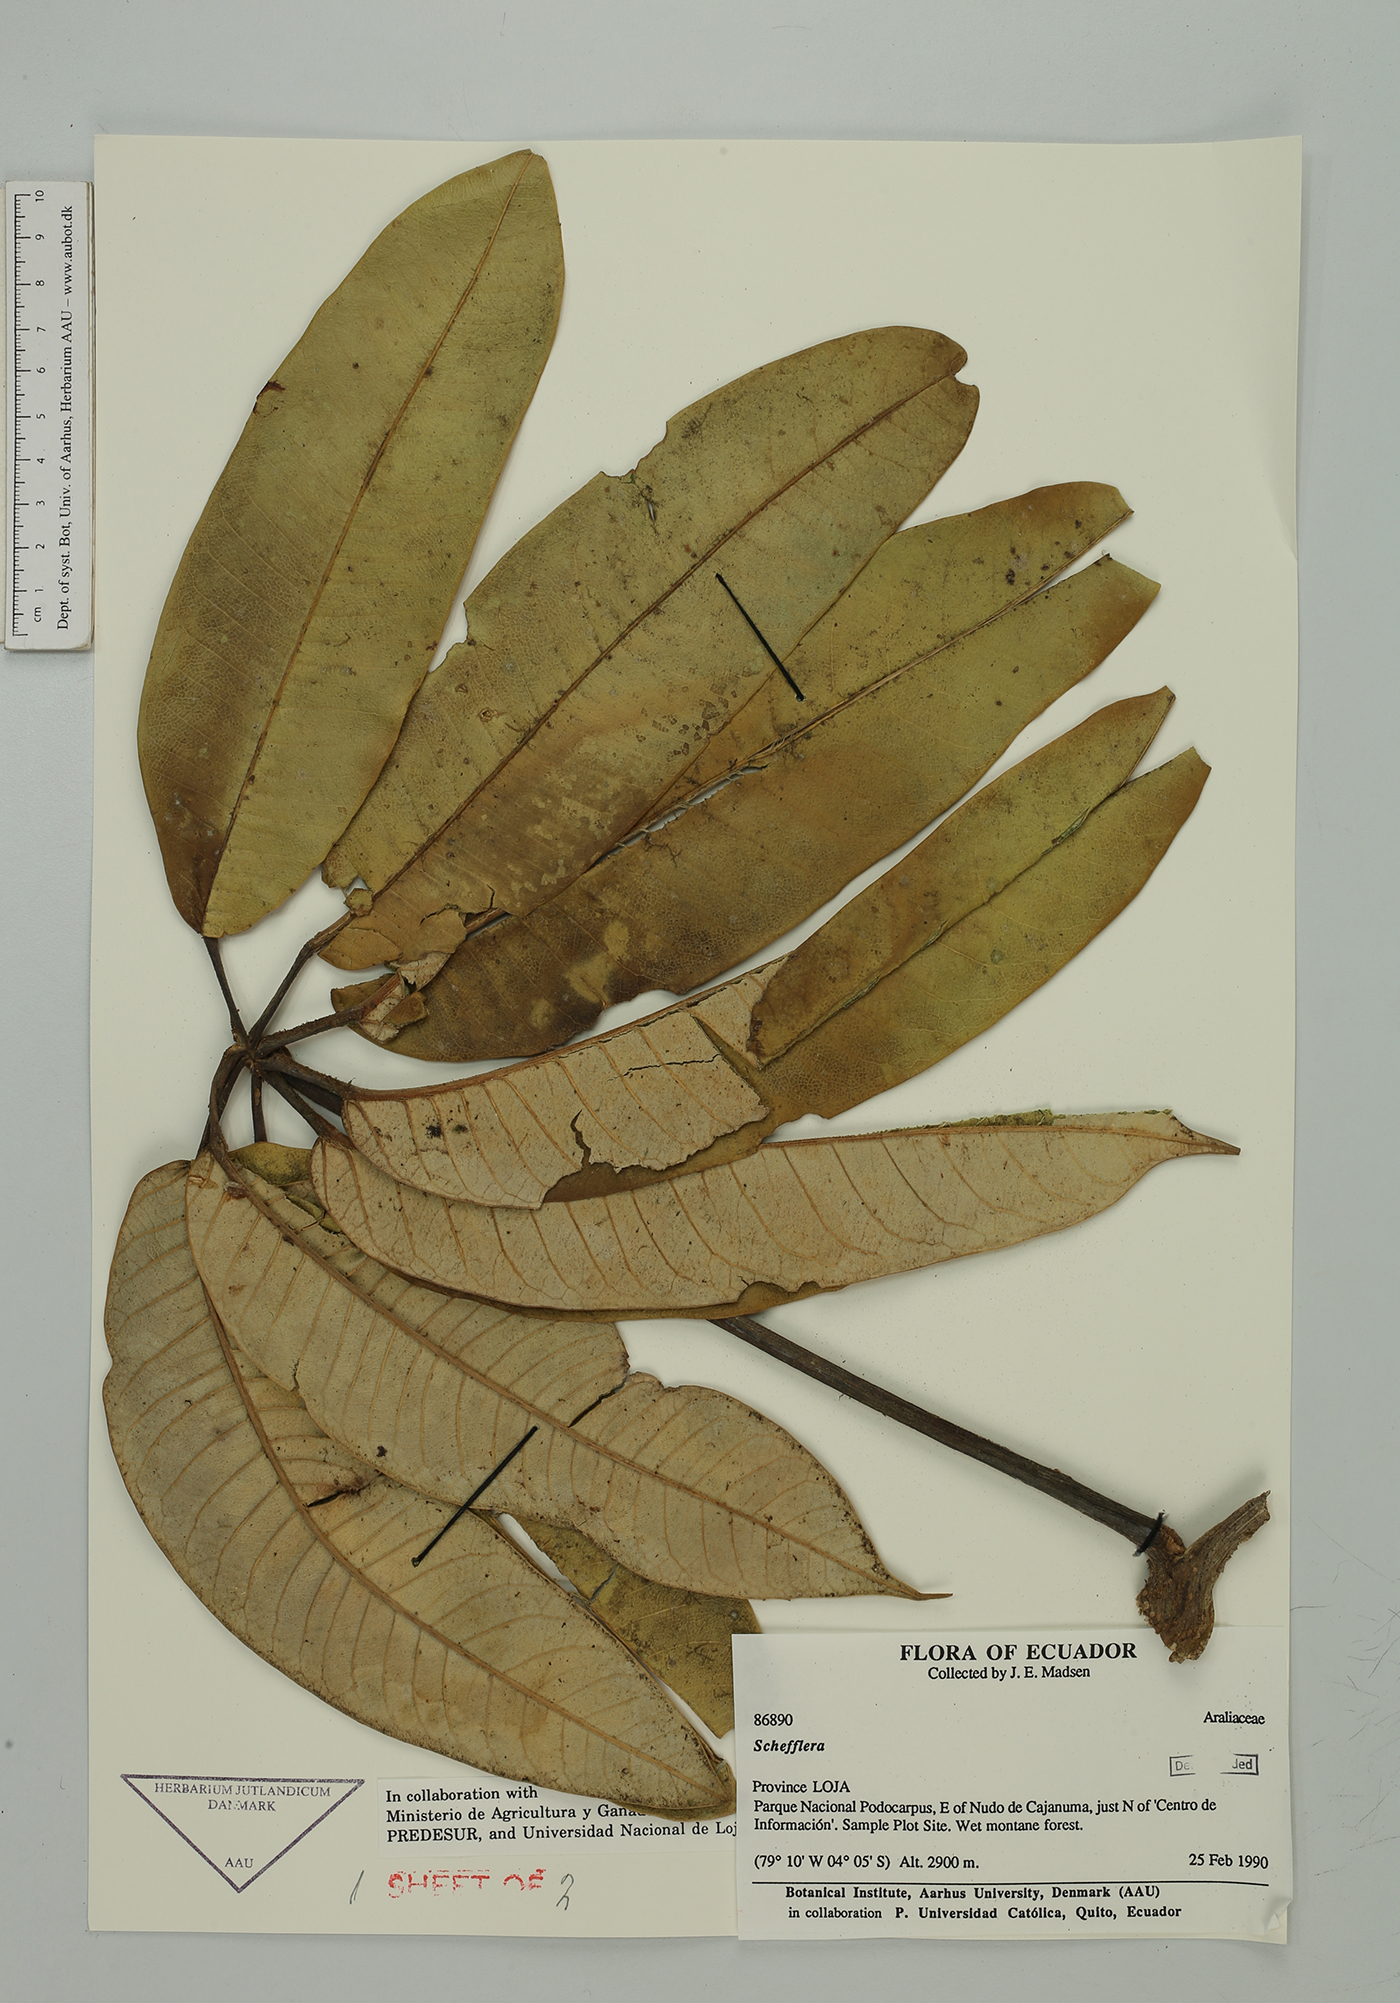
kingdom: Plantae
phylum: Tracheophyta
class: Magnoliopsida
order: Apiales
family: Araliaceae
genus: Sciodaphyllum
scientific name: Sciodaphyllum
